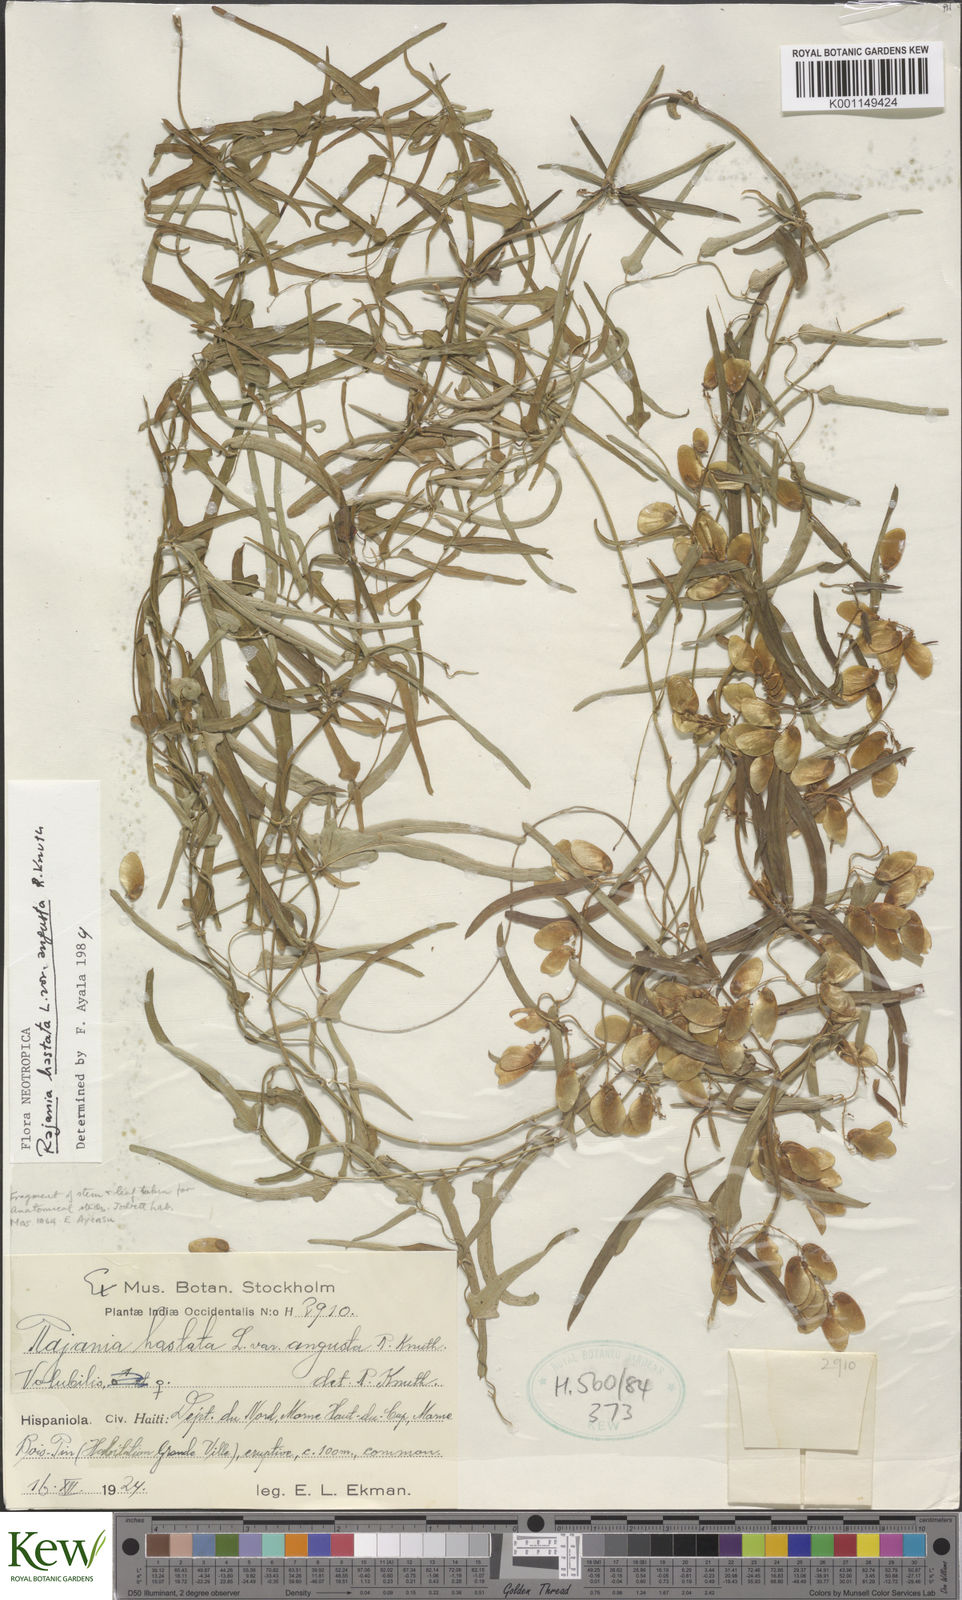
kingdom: Plantae
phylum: Tracheophyta
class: Liliopsida
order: Dioscoreales
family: Dioscoreaceae
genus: Dioscorea
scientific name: Dioscorea hastata
